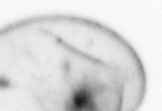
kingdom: Chromista
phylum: Myzozoa
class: Dinophyceae
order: Noctilucales
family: Noctilucaceae
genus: Noctiluca
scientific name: Noctiluca scintillans
